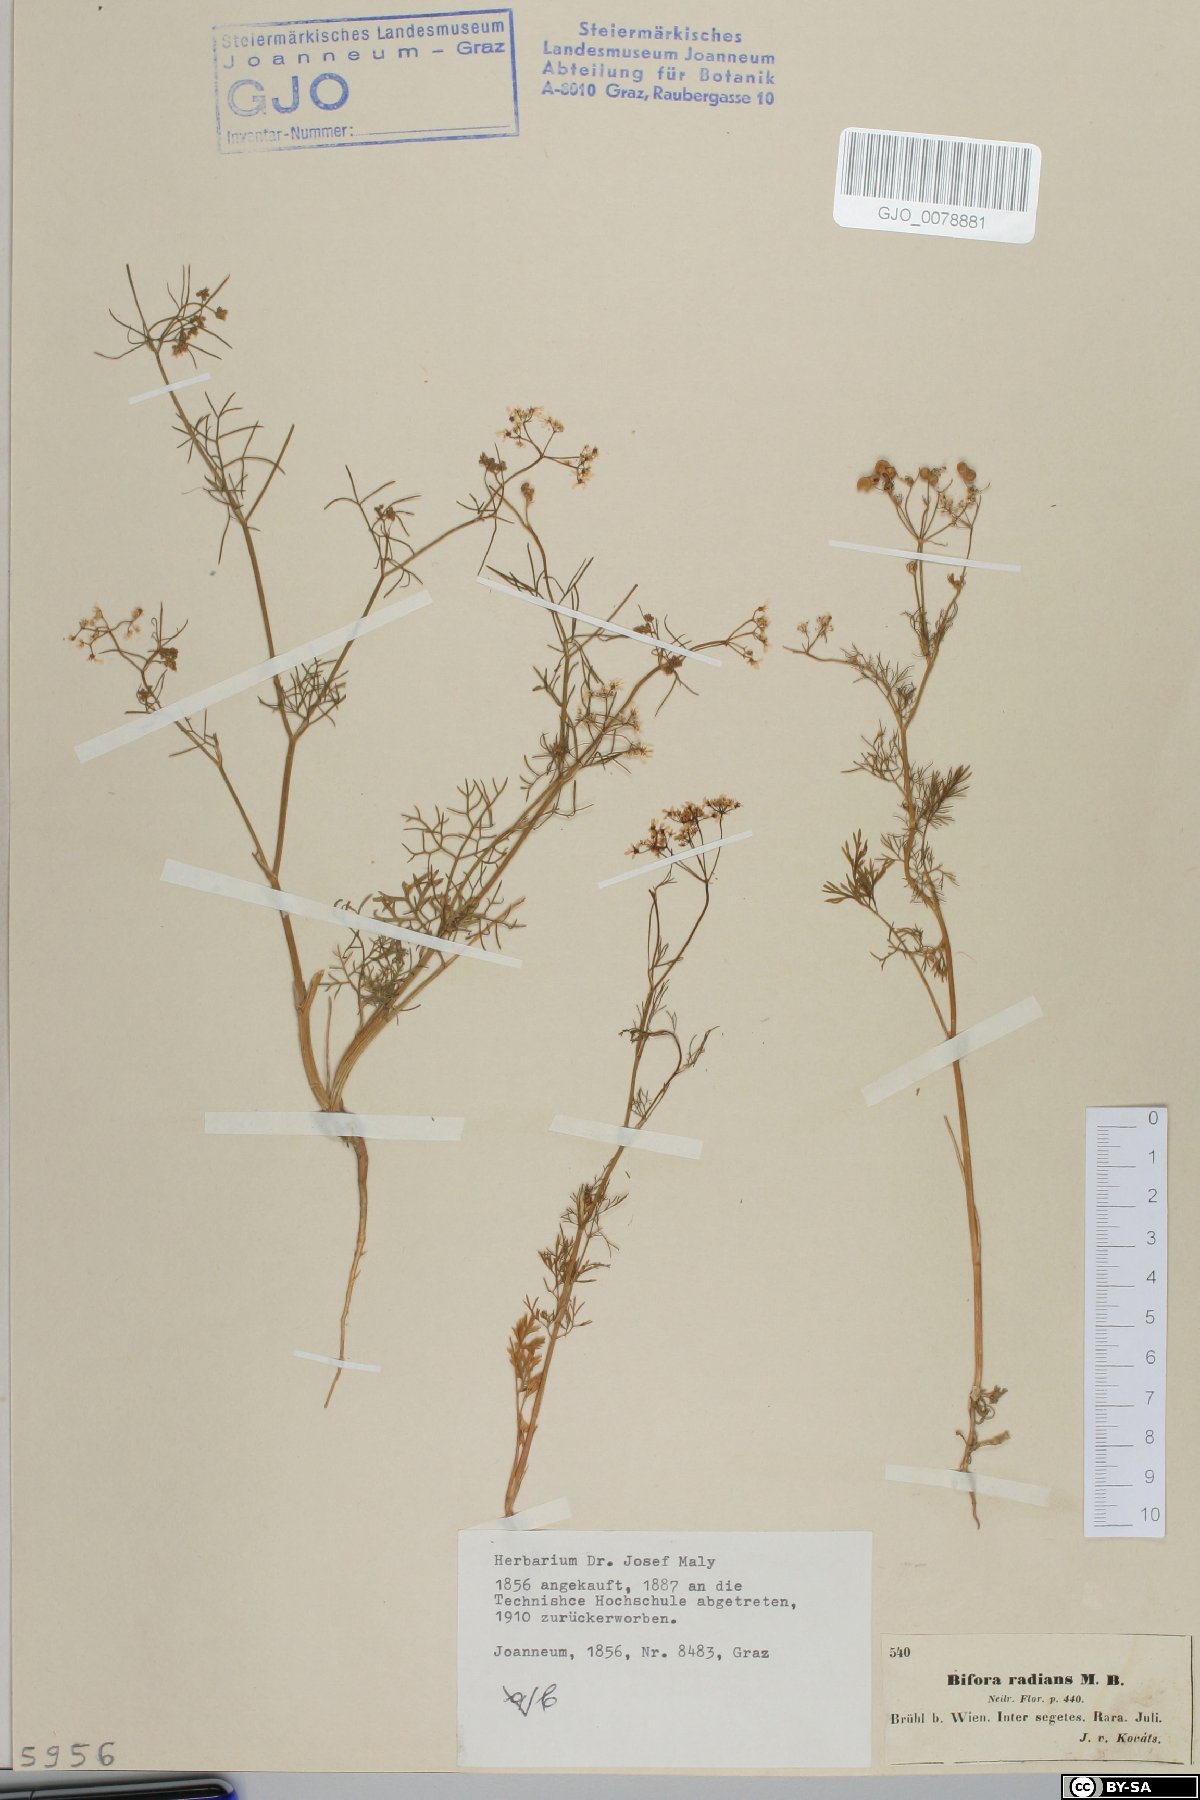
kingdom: Plantae
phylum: Tracheophyta
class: Magnoliopsida
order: Apiales
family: Apiaceae
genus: Bifora
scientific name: Bifora radians
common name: Wild bishop
